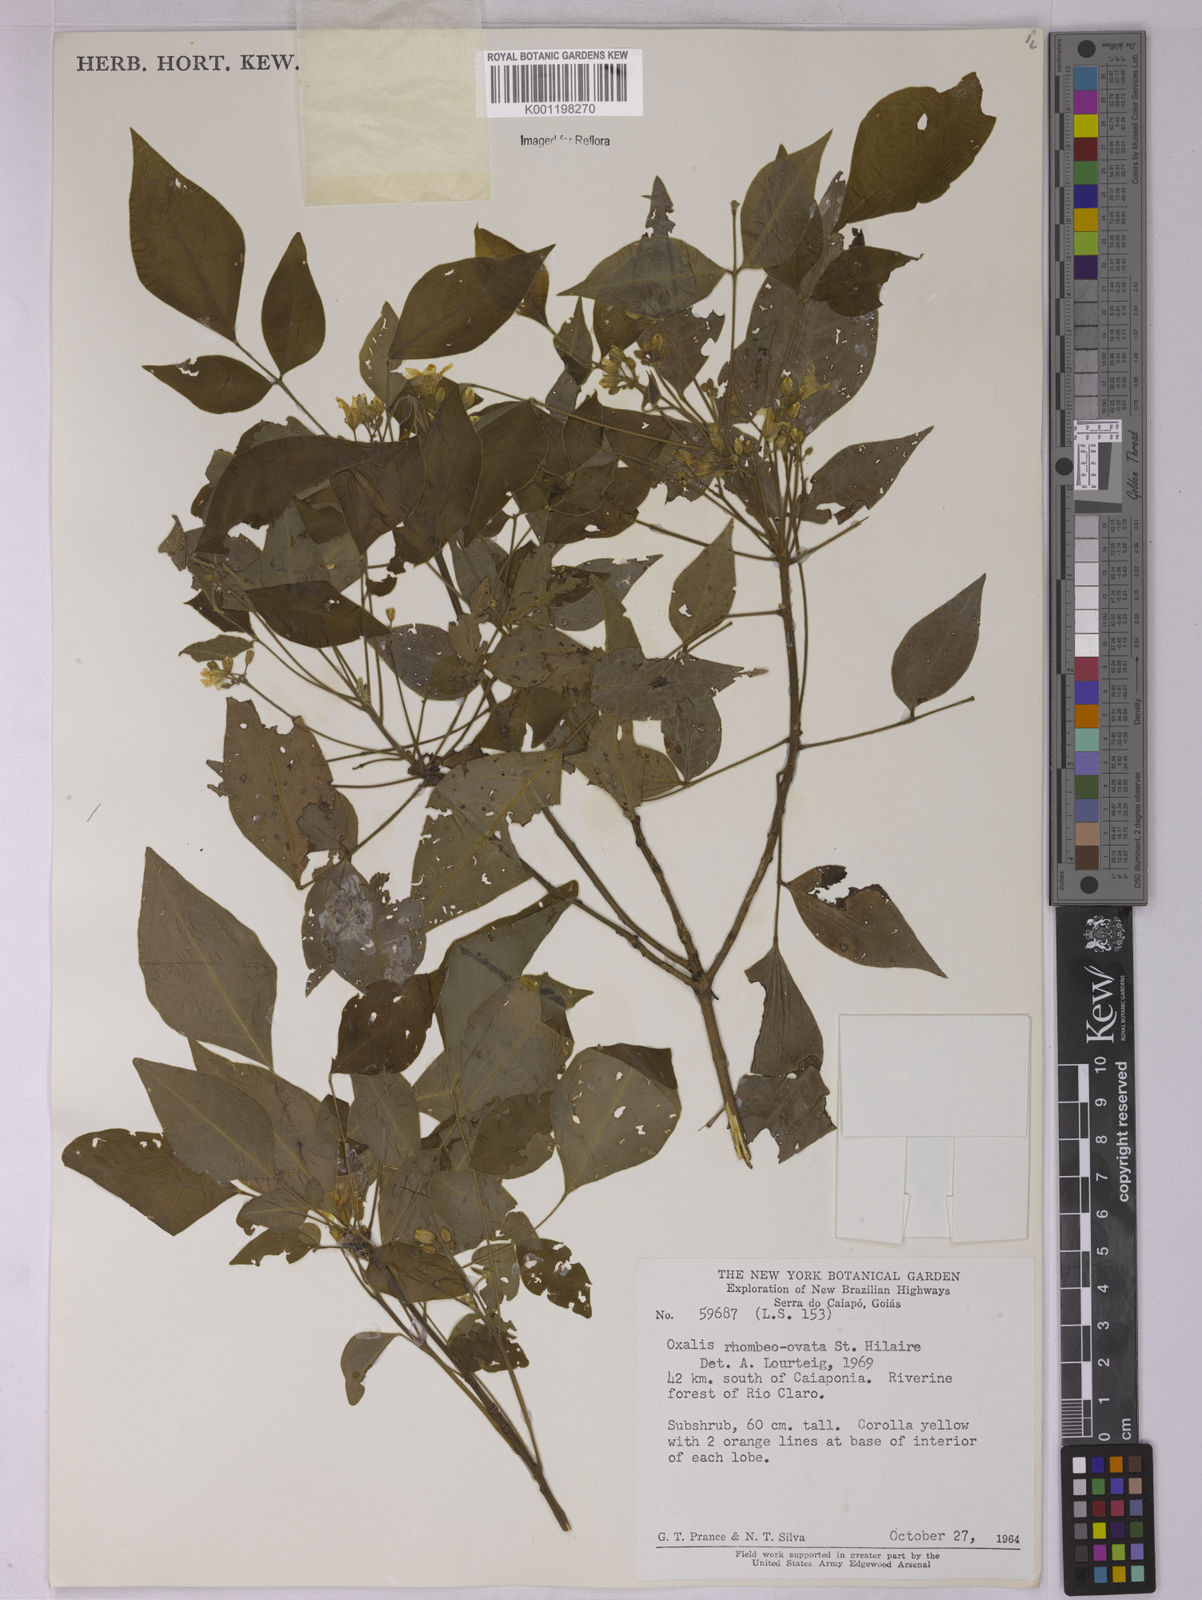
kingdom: Plantae
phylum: Tracheophyta
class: Magnoliopsida
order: Oxalidales
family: Oxalidaceae
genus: Oxalis
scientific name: Oxalis rhombeo-ovata
